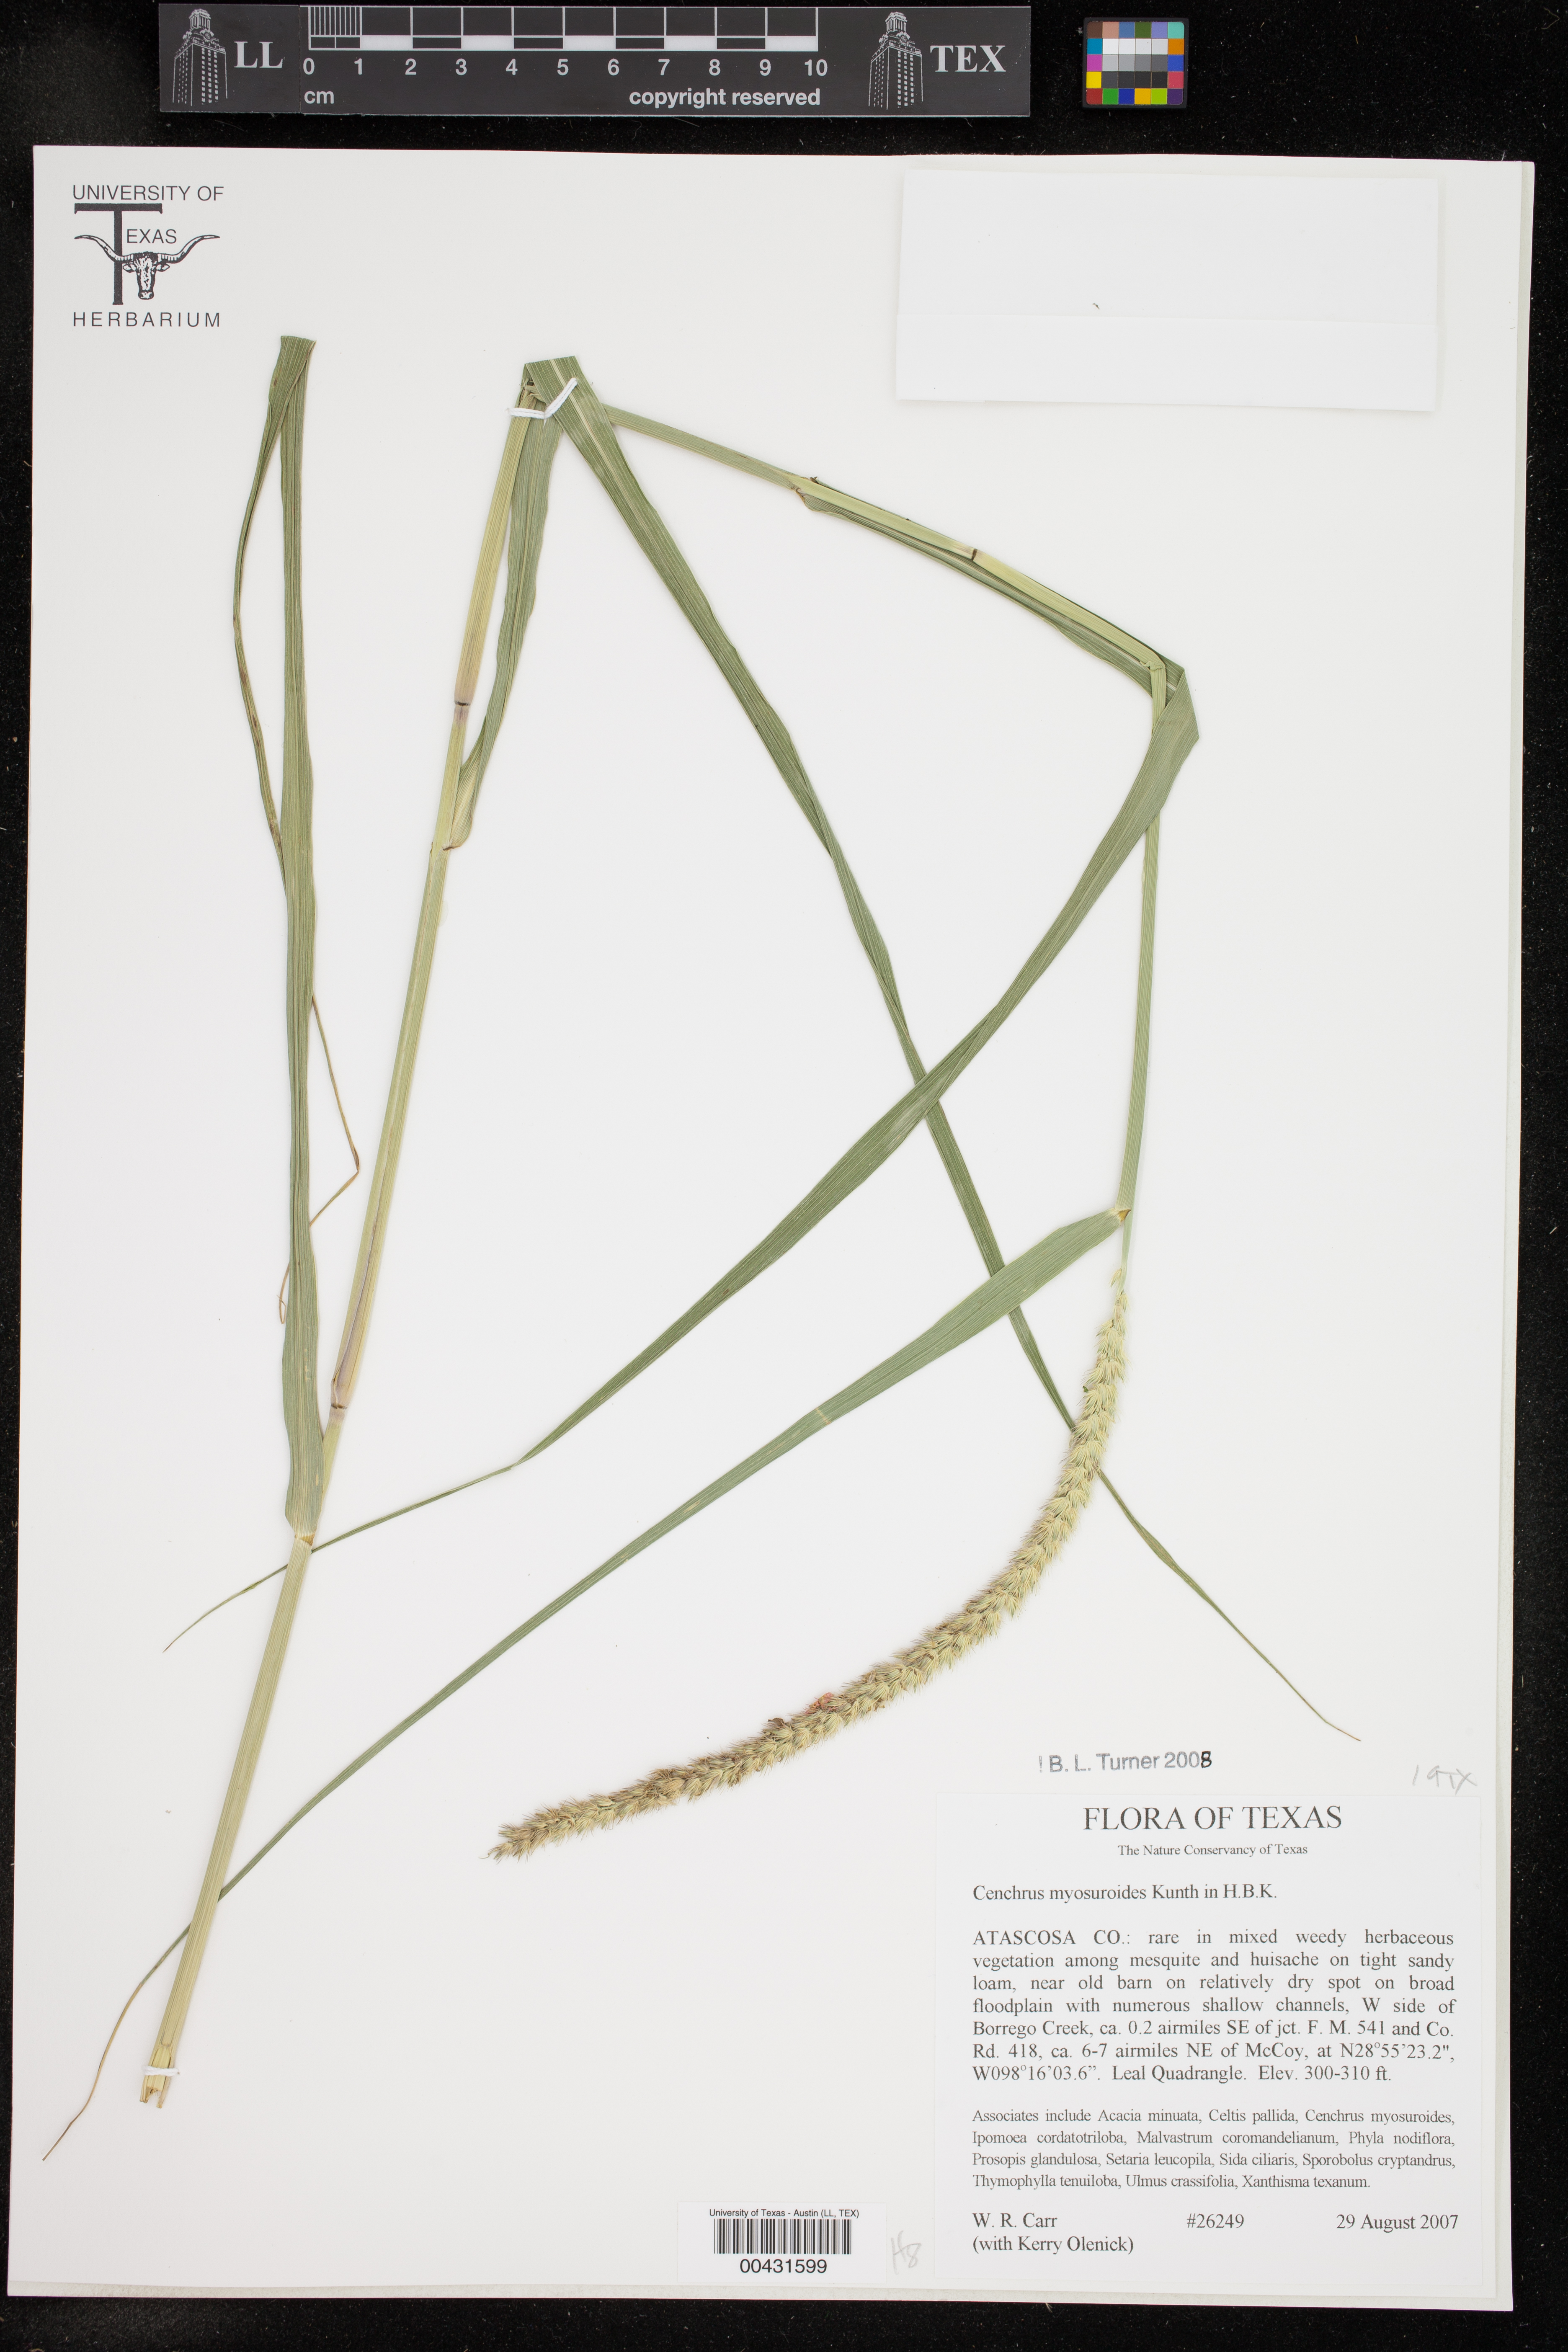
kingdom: Plantae
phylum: Tracheophyta
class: Liliopsida
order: Poales
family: Poaceae
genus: Cenchrus
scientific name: Cenchrus myosuroides
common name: Big sandbur
